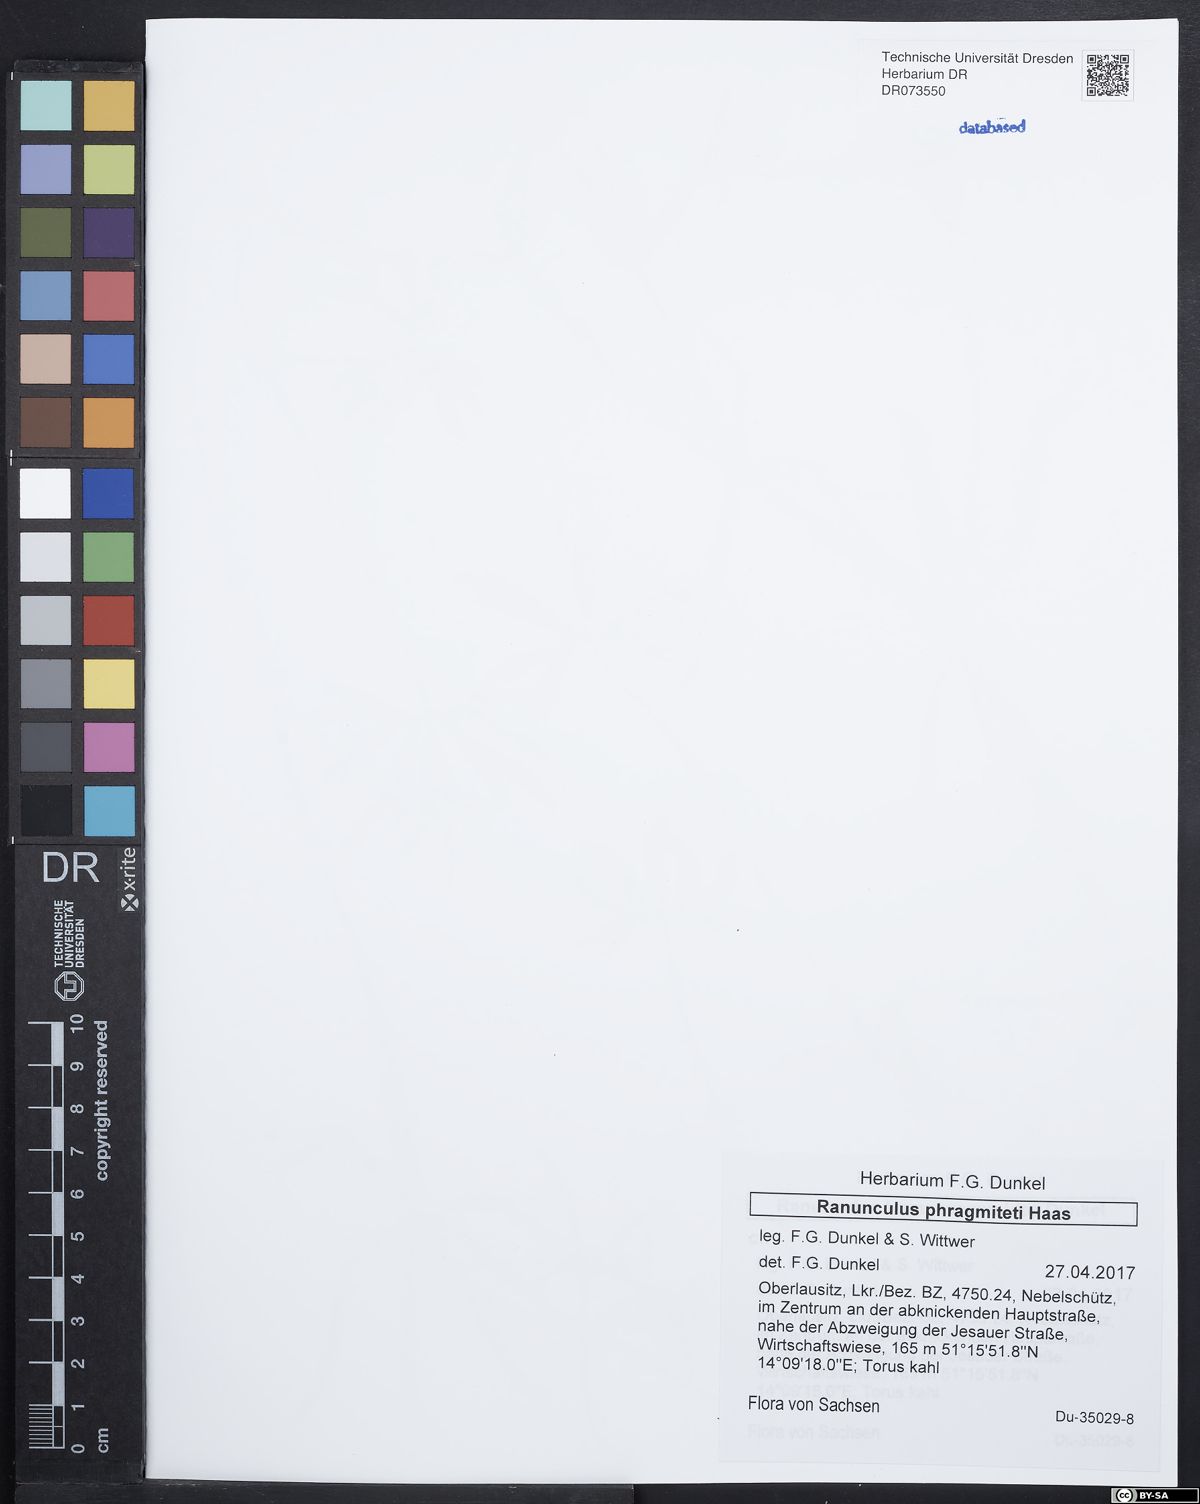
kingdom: Plantae
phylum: Tracheophyta
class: Magnoliopsida
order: Ranunculales
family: Ranunculaceae
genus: Ranunculus
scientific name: Ranunculus phragmiteti
